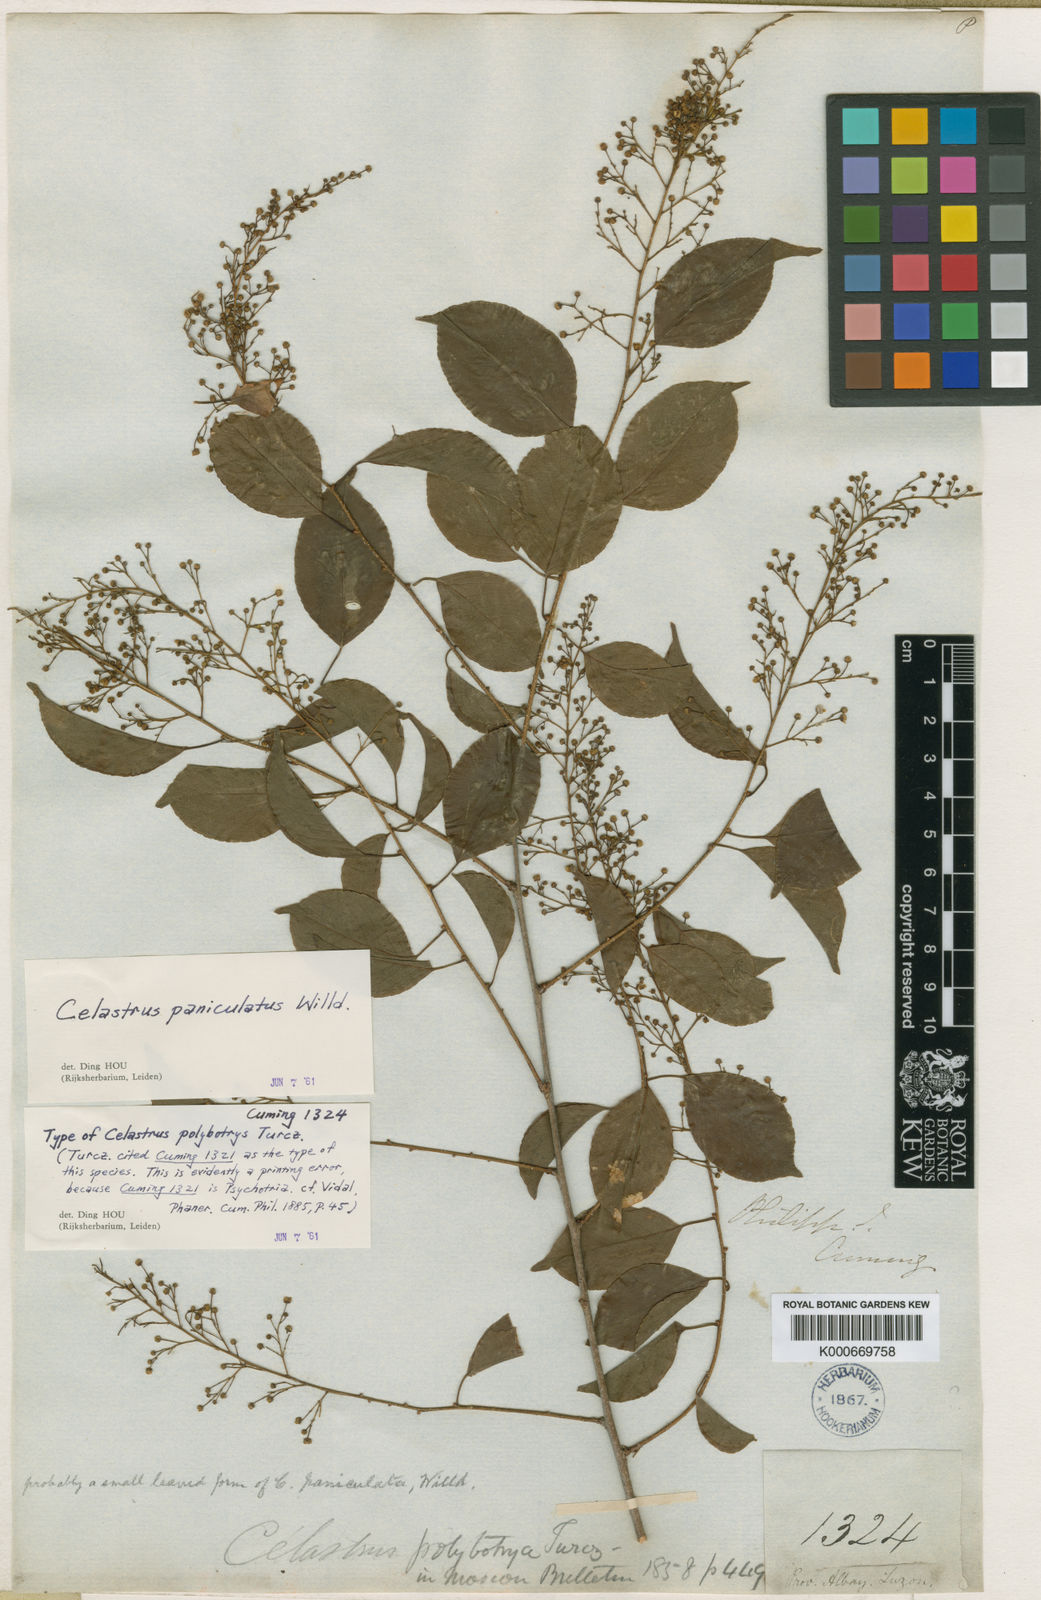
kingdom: Plantae
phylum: Tracheophyta
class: Magnoliopsida
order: Celastrales
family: Celastraceae
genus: Celastrus
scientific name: Celastrus paniculatus
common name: Oriental bittersweet; staff vine
